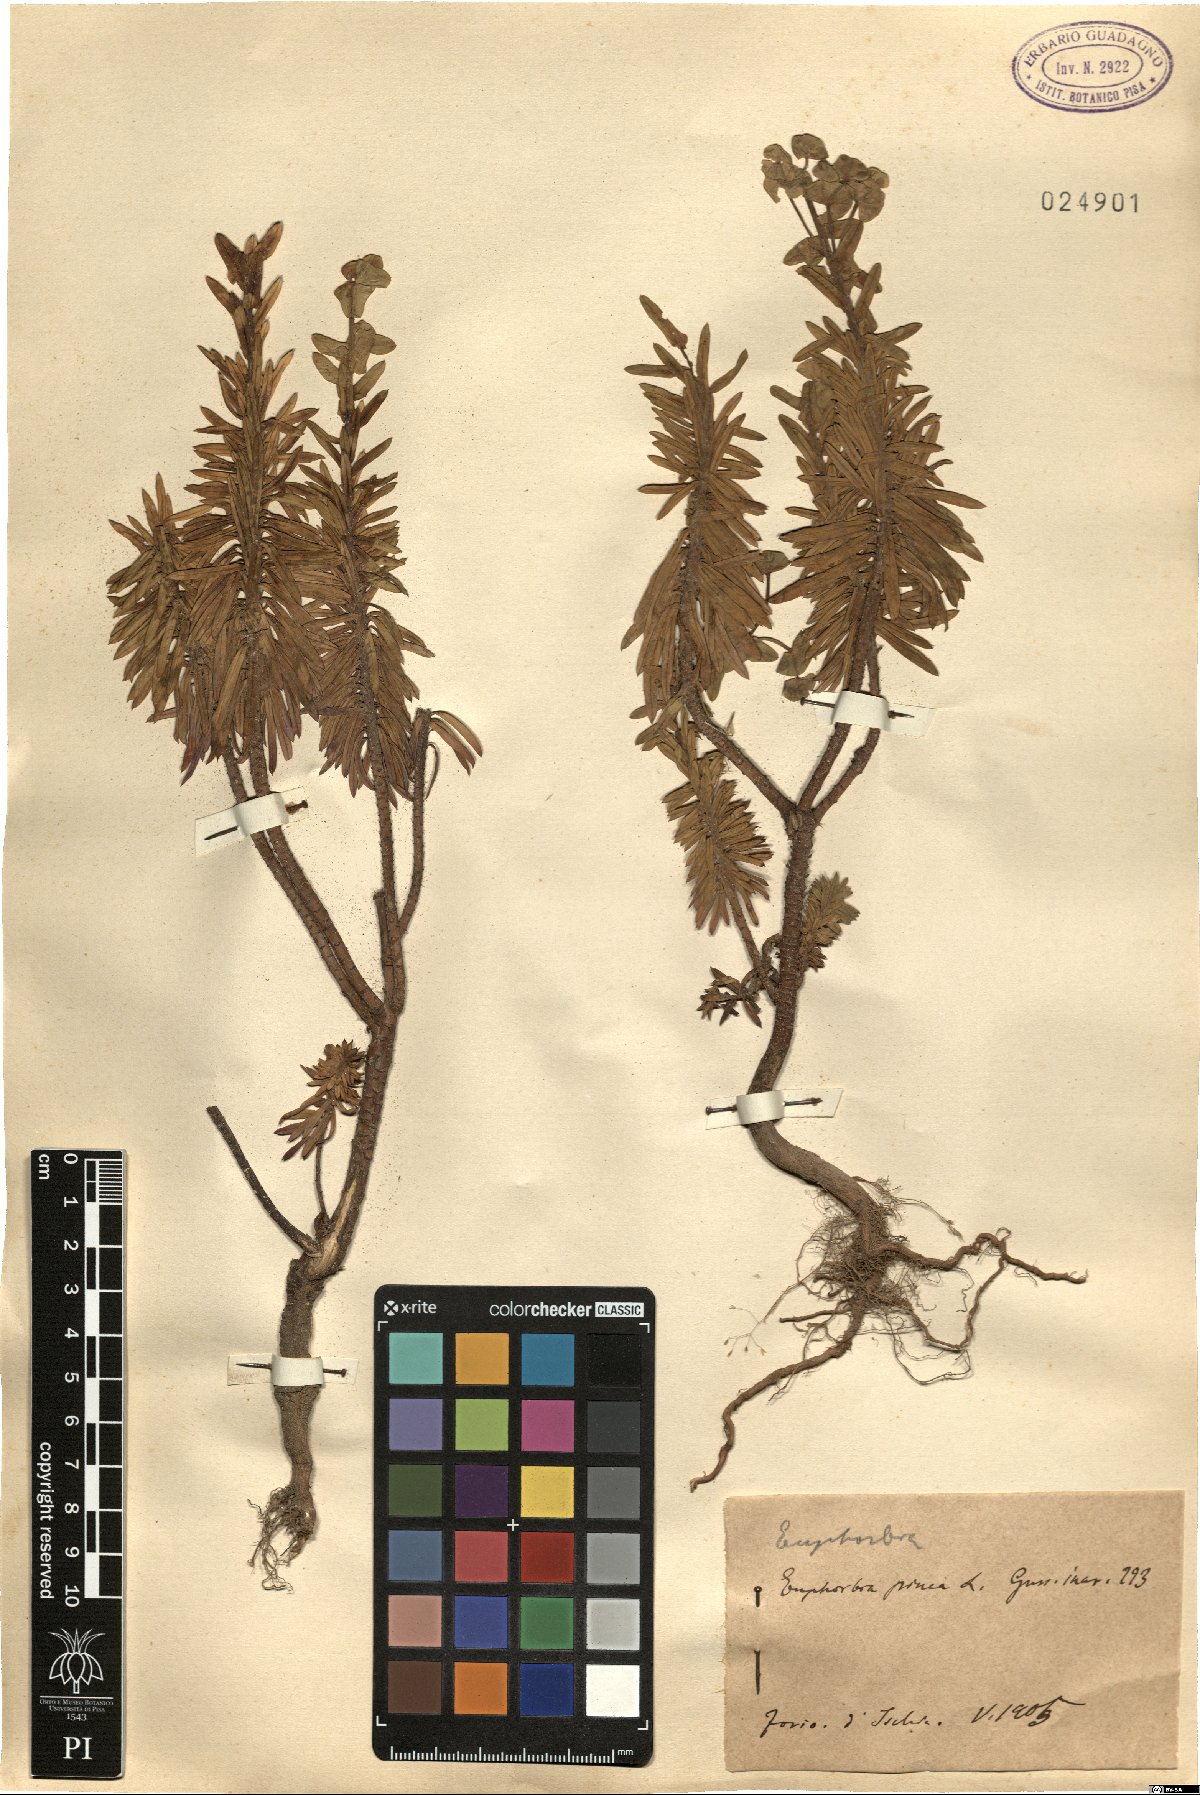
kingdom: Plantae
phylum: Tracheophyta
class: Magnoliopsida
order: Malpighiales
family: Euphorbiaceae
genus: Euphorbia
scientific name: Euphorbia segetalis
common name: Corn spurge
